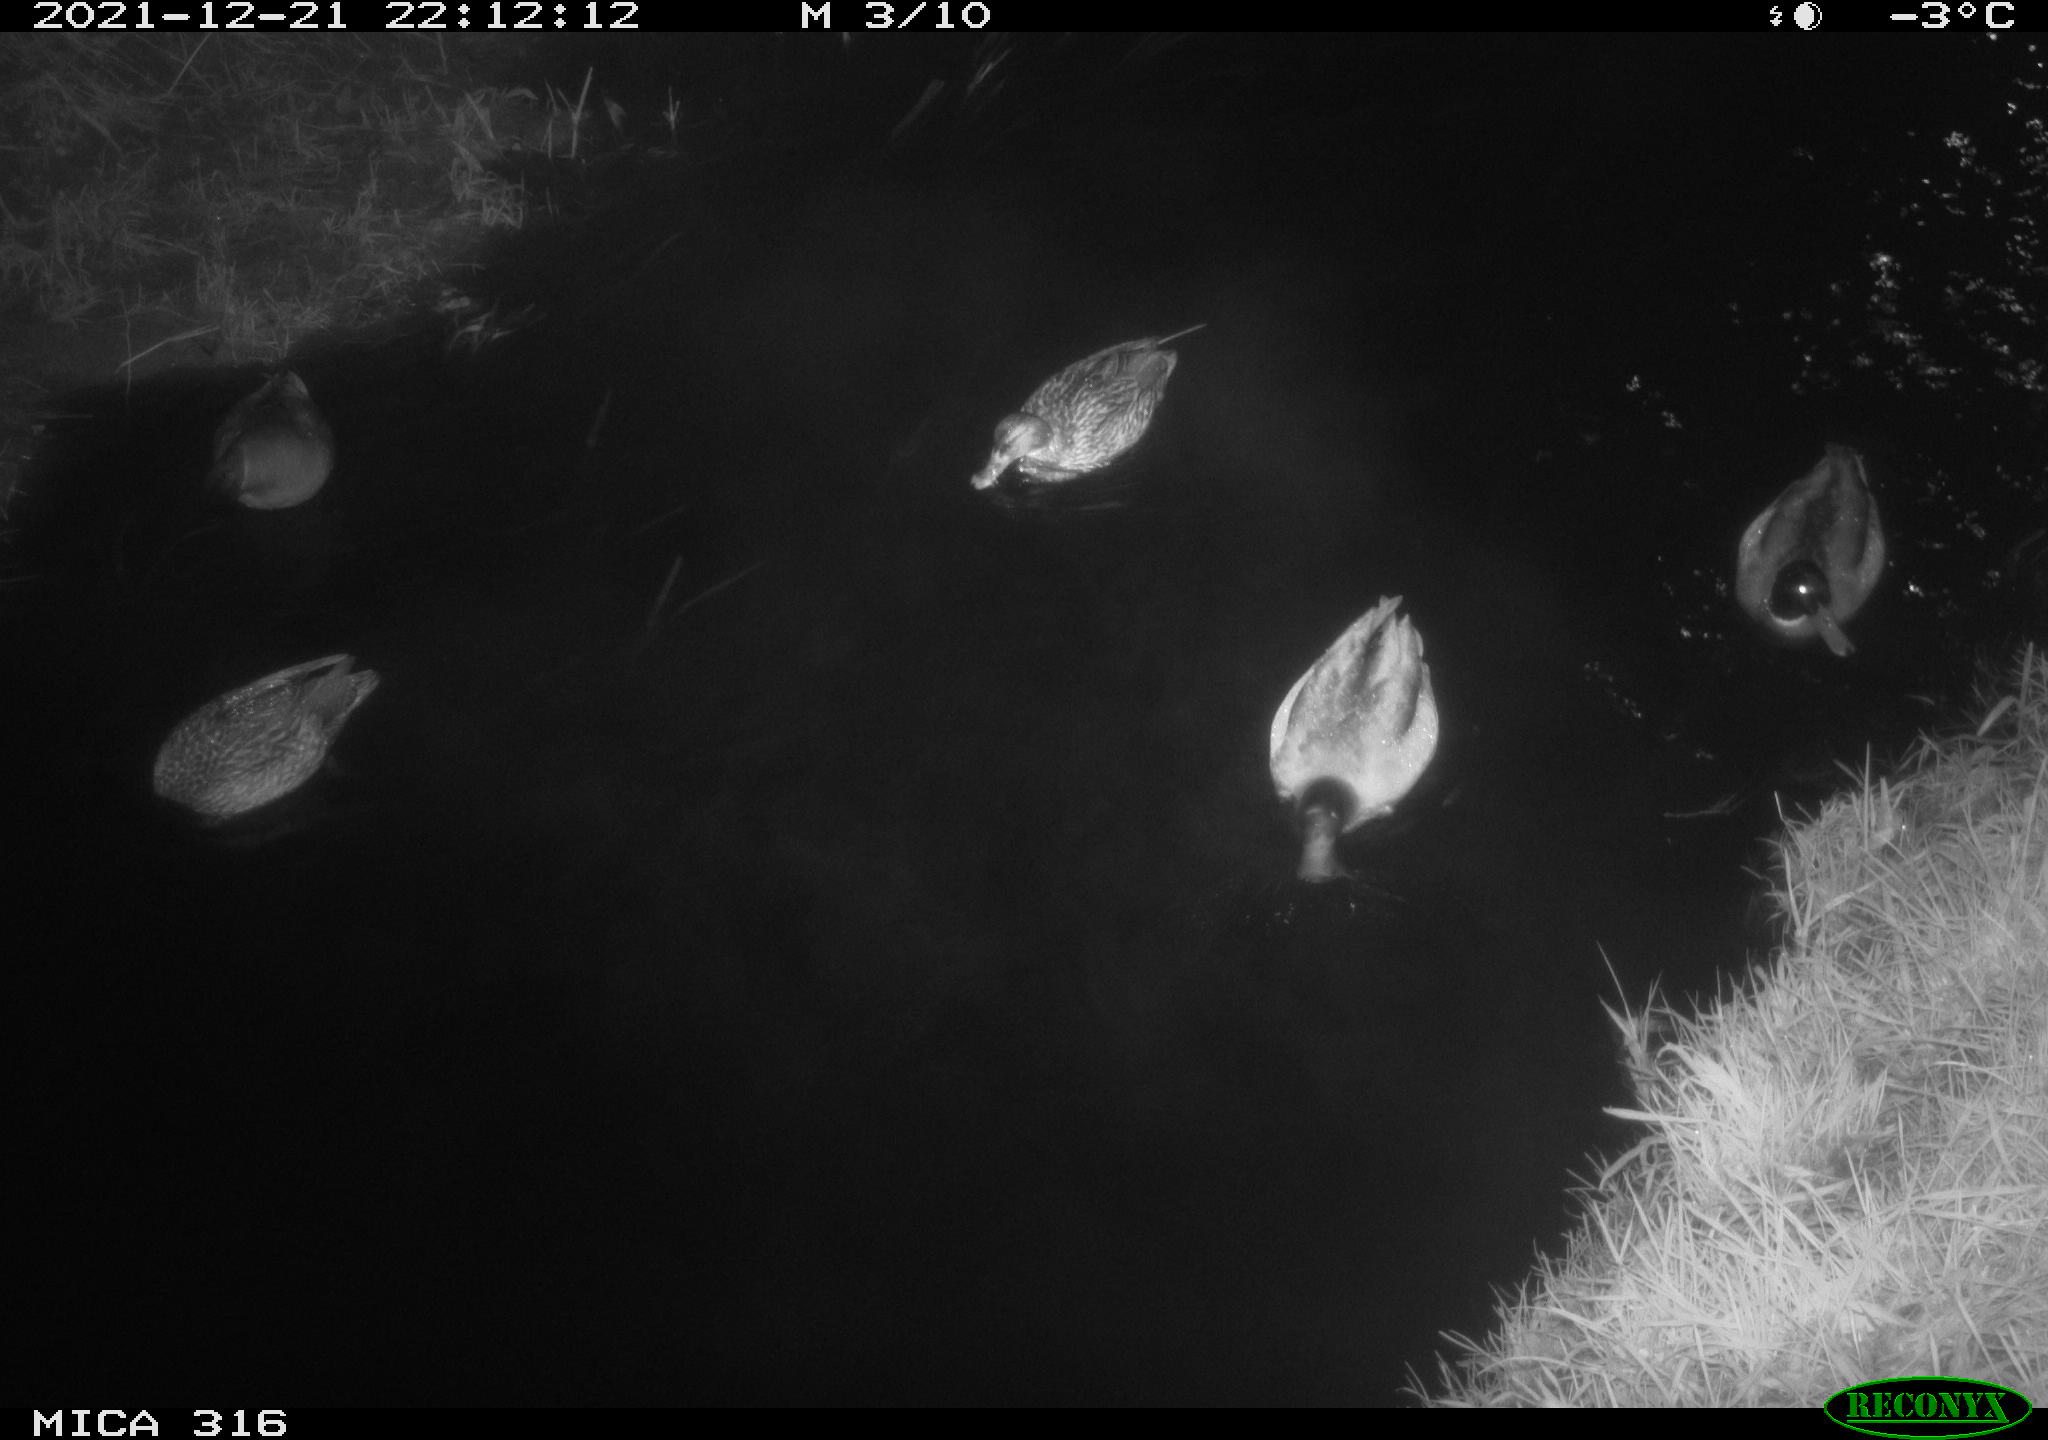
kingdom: Animalia
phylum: Chordata
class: Aves
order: Anseriformes
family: Anatidae
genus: Anas
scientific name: Anas
